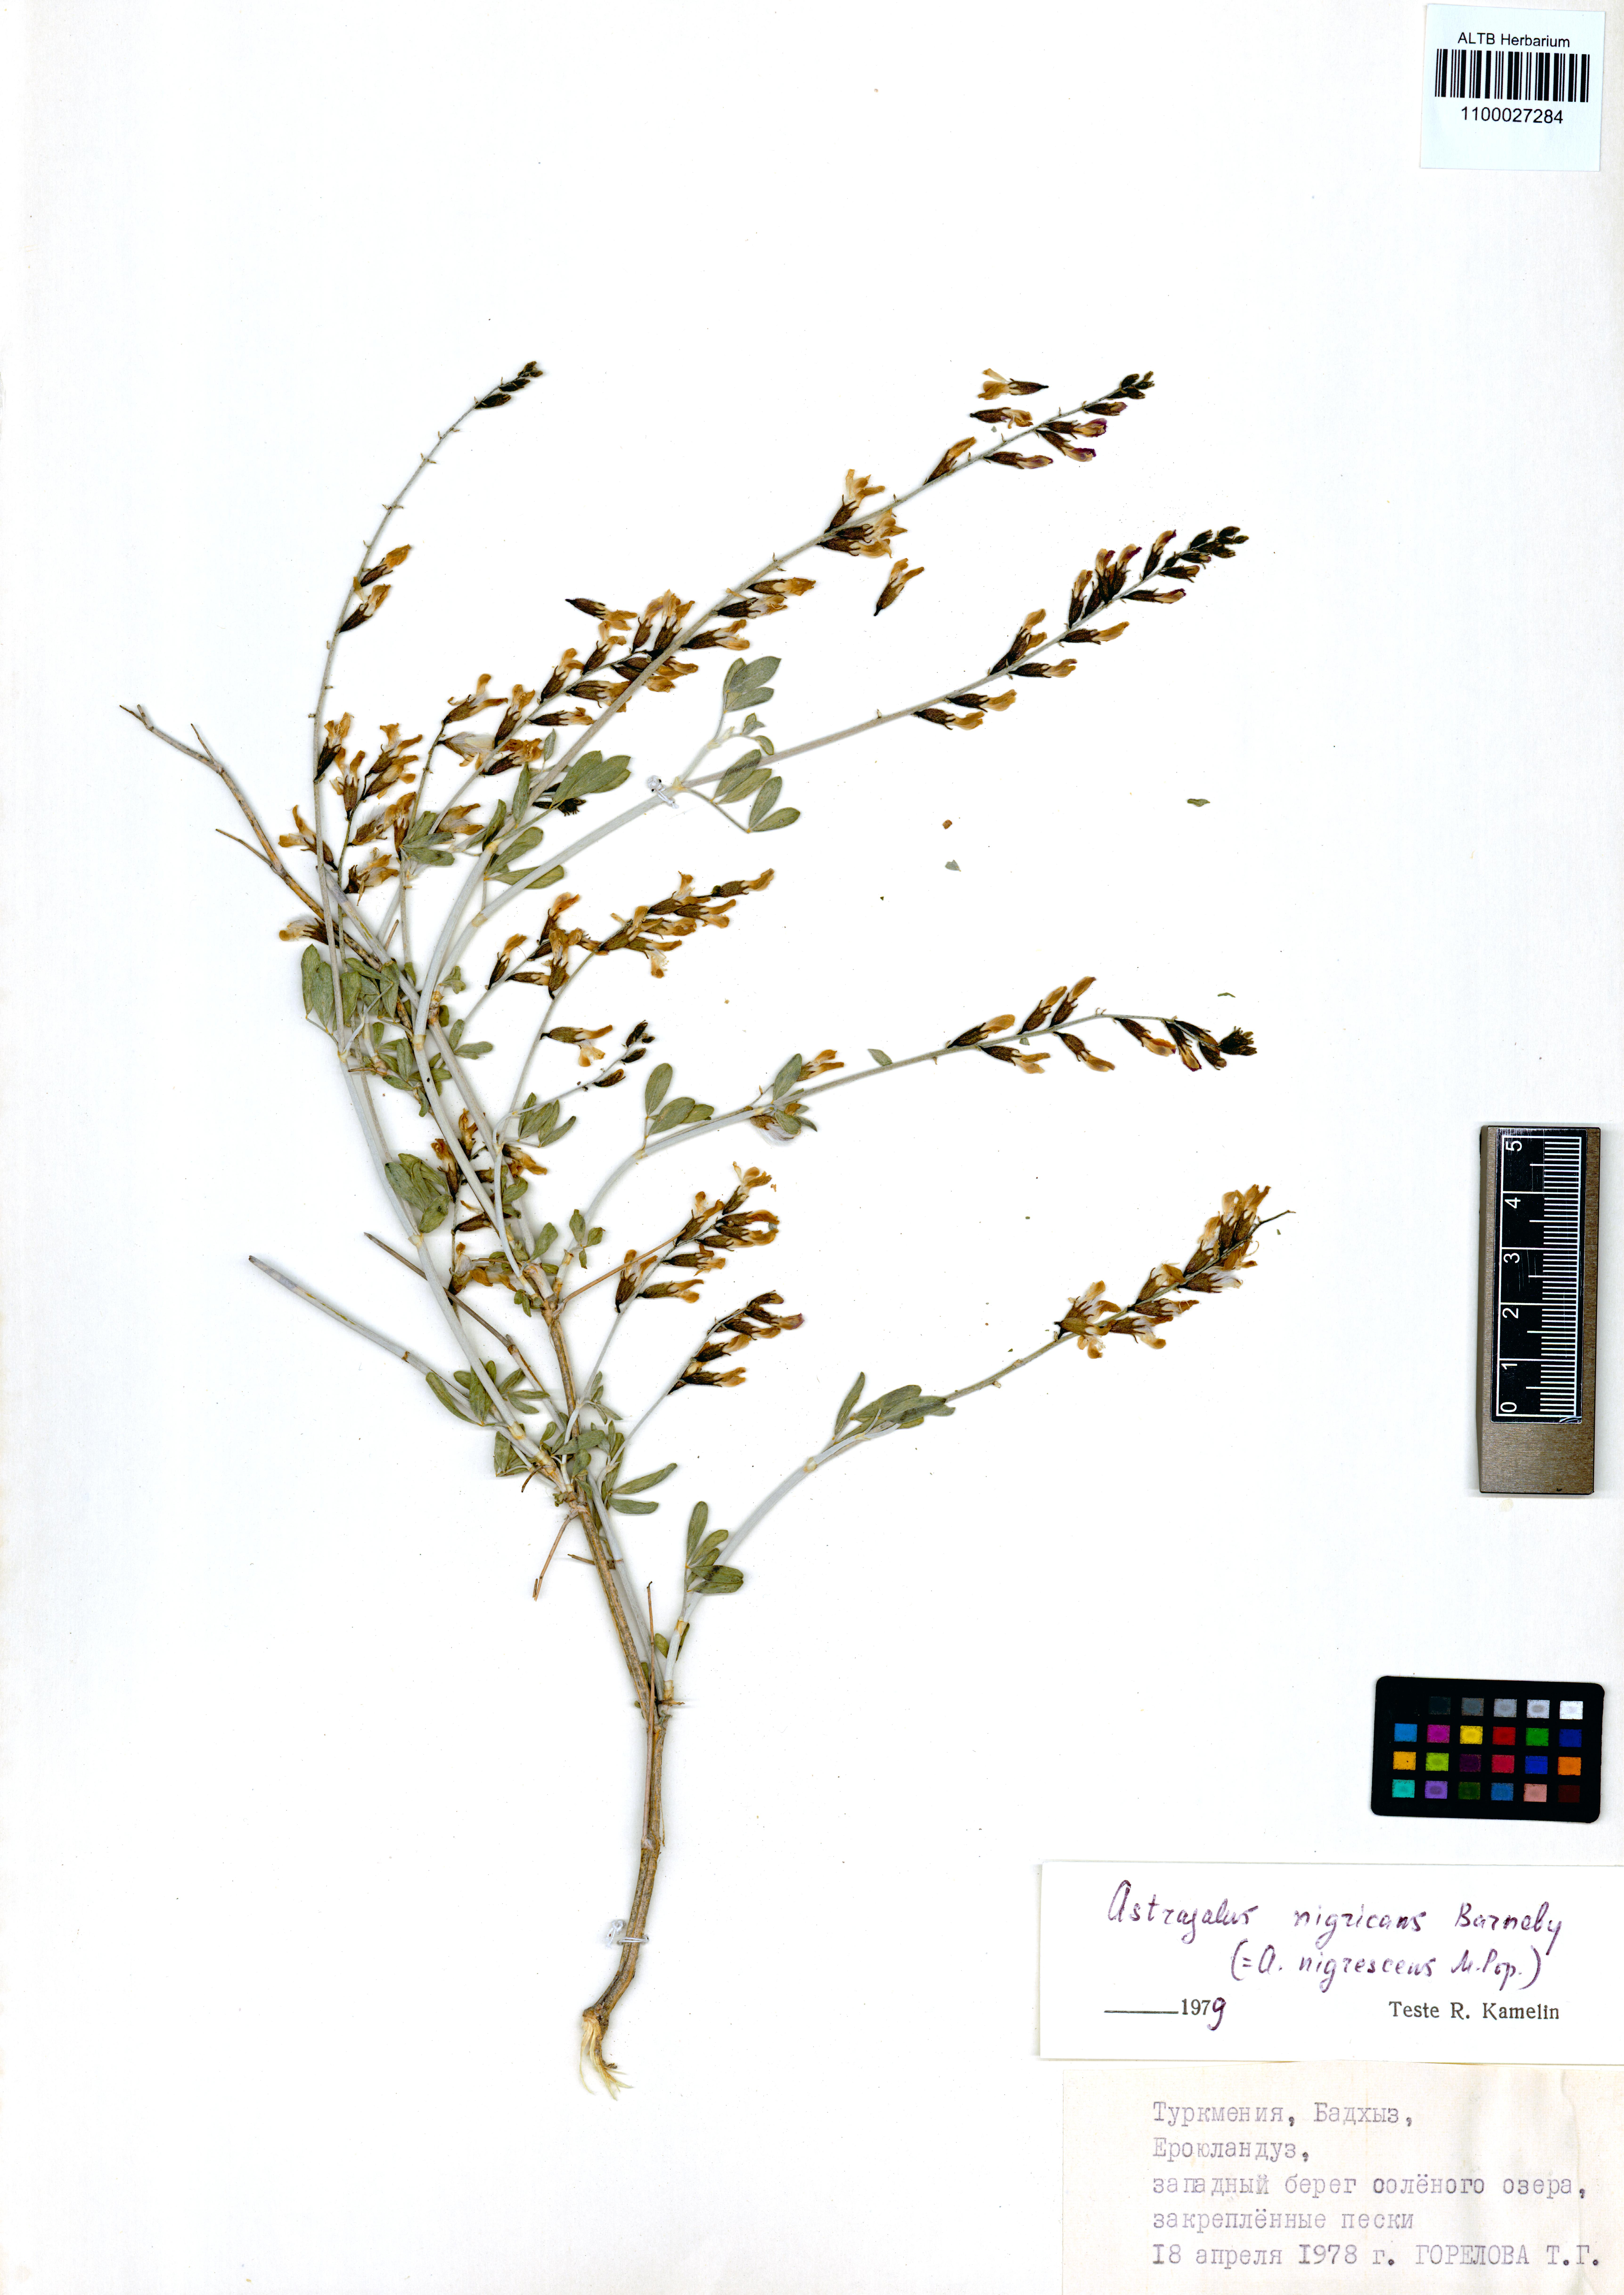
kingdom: Plantae
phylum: Tracheophyta
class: Magnoliopsida
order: Fabales
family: Fabaceae
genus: Astragalus
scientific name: Astragalus nigricans
